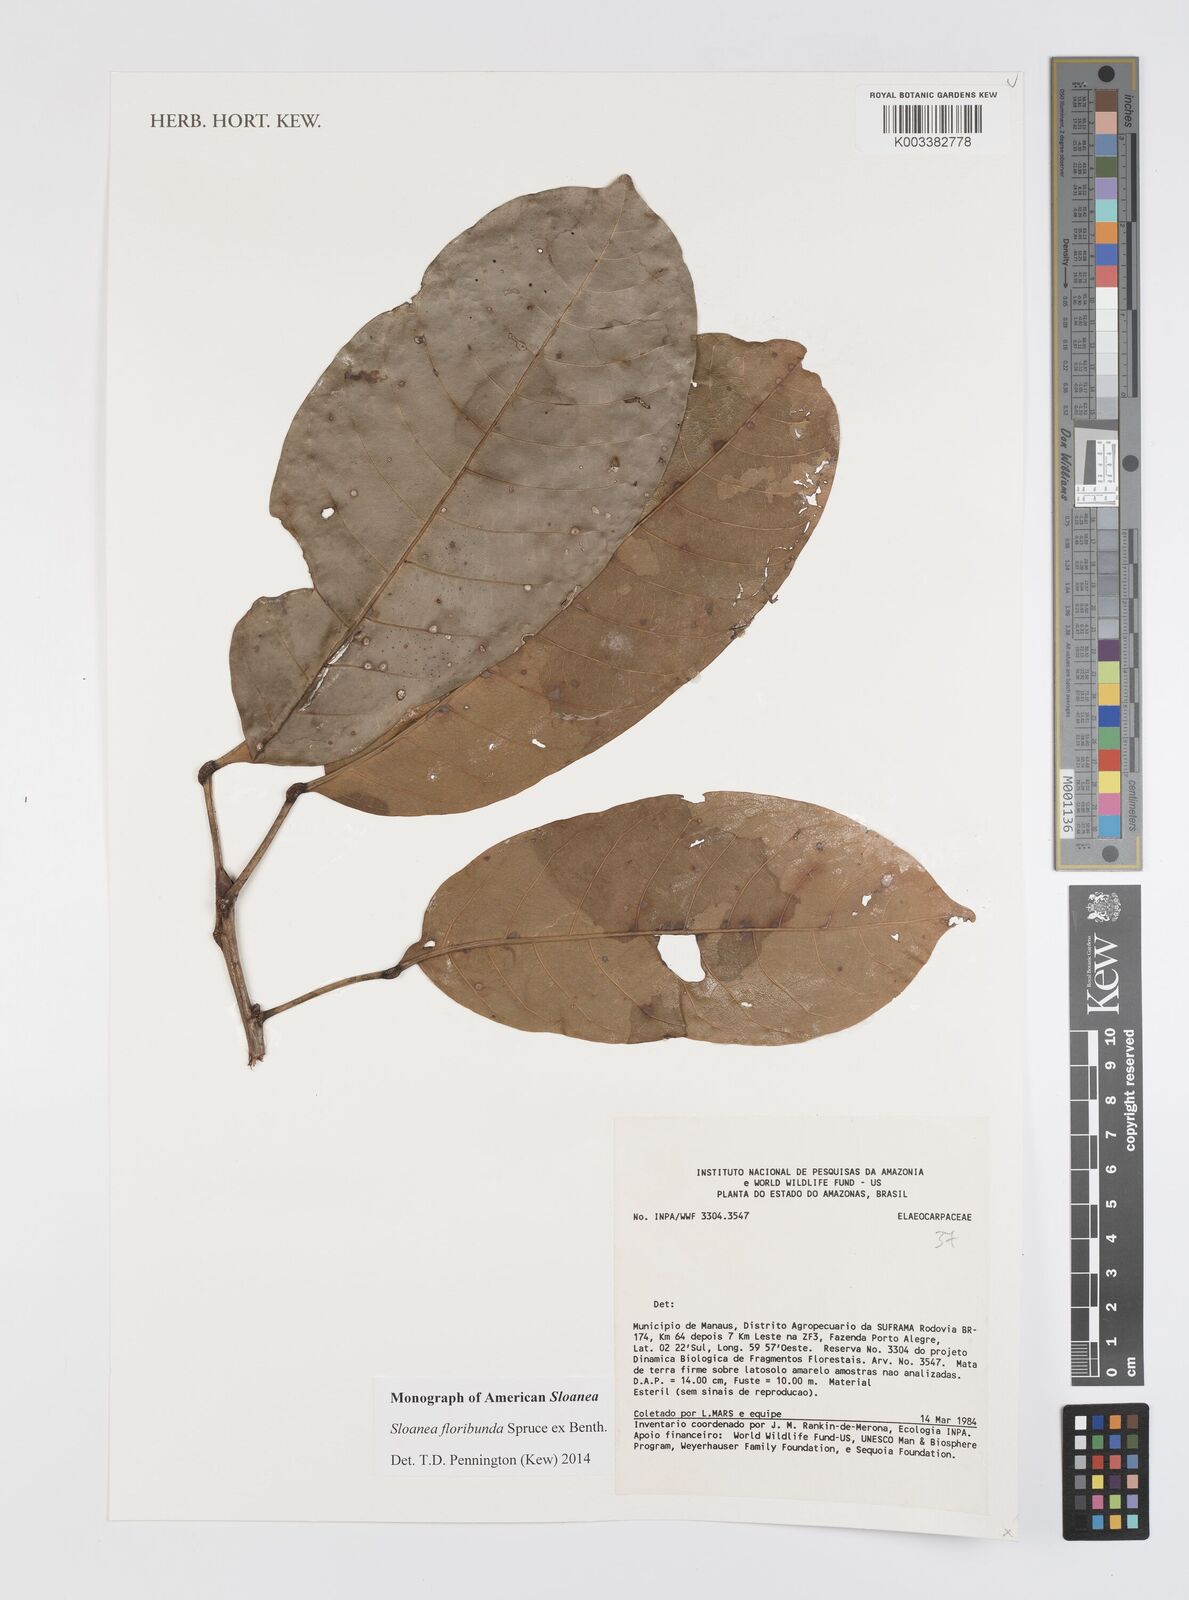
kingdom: Plantae
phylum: Tracheophyta
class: Magnoliopsida
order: Oxalidales
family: Elaeocarpaceae
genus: Sloanea
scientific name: Sloanea floribunda
